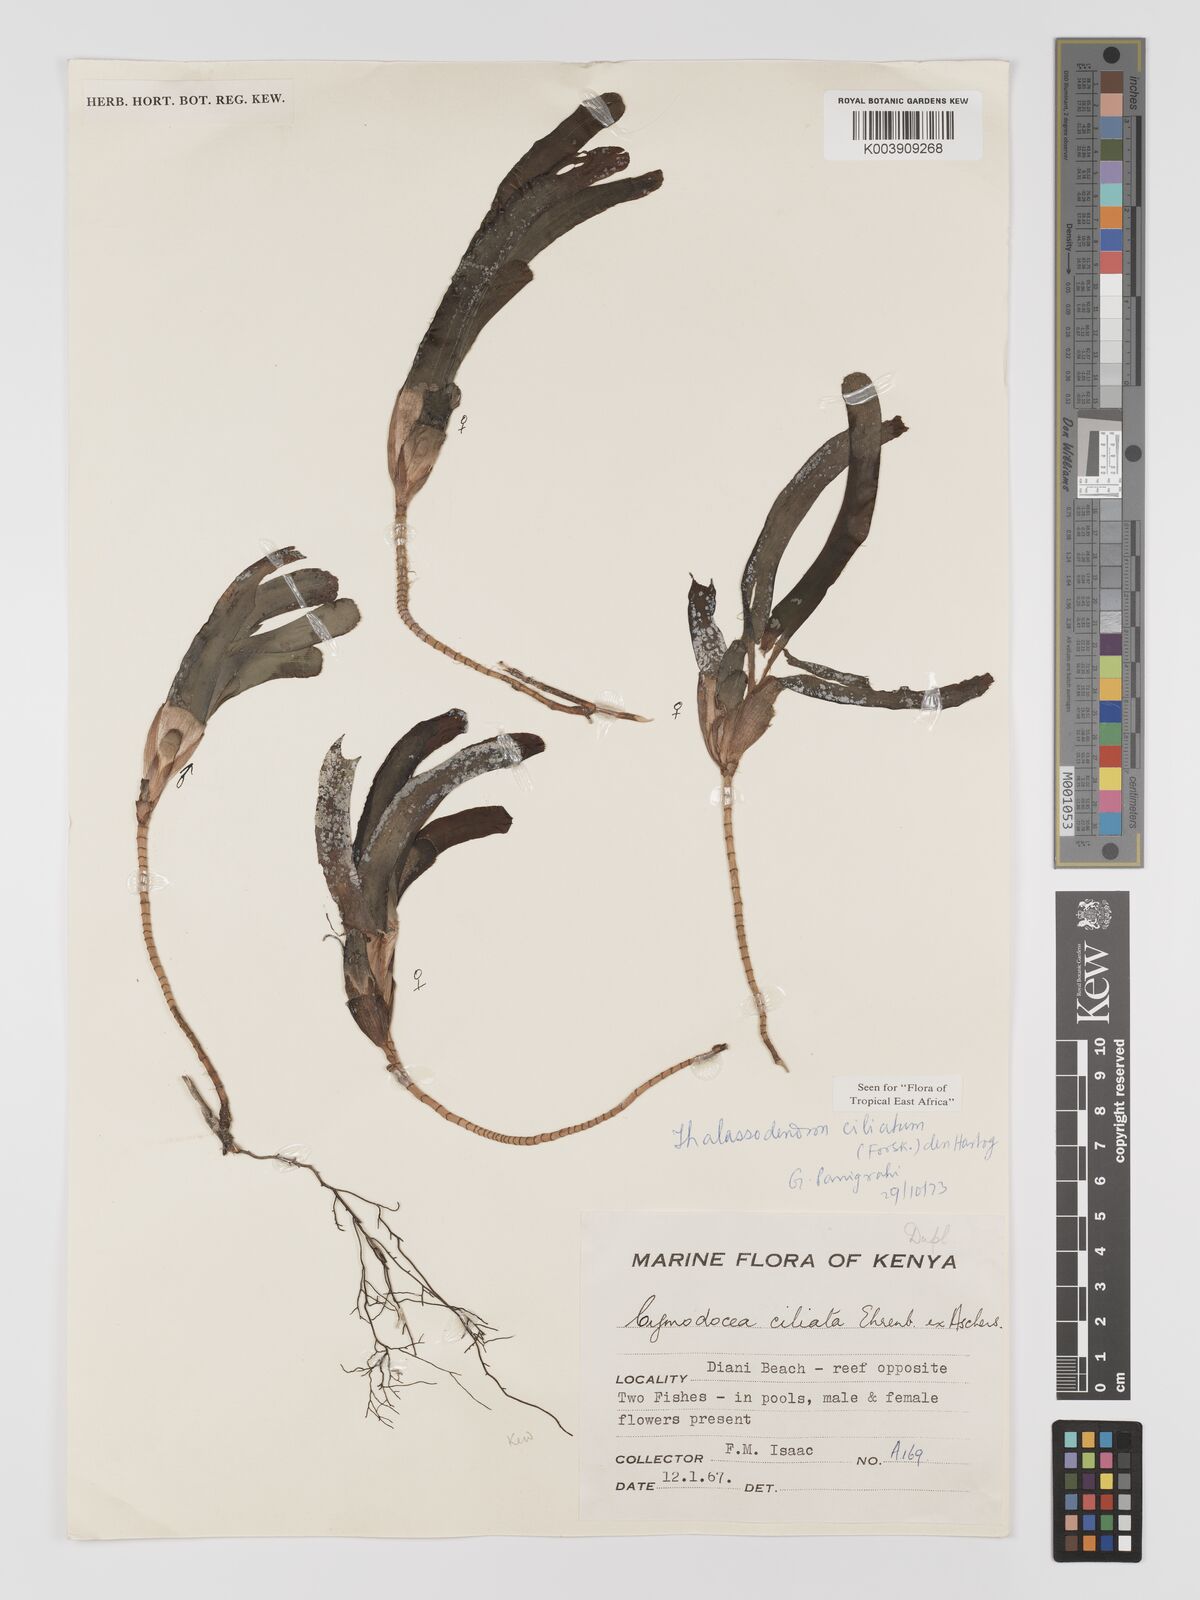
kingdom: Plantae
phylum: Tracheophyta
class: Liliopsida
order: Alismatales
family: Cymodoceaceae
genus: Thalassodendron
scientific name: Thalassodendron ciliatum
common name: Species code: tc
